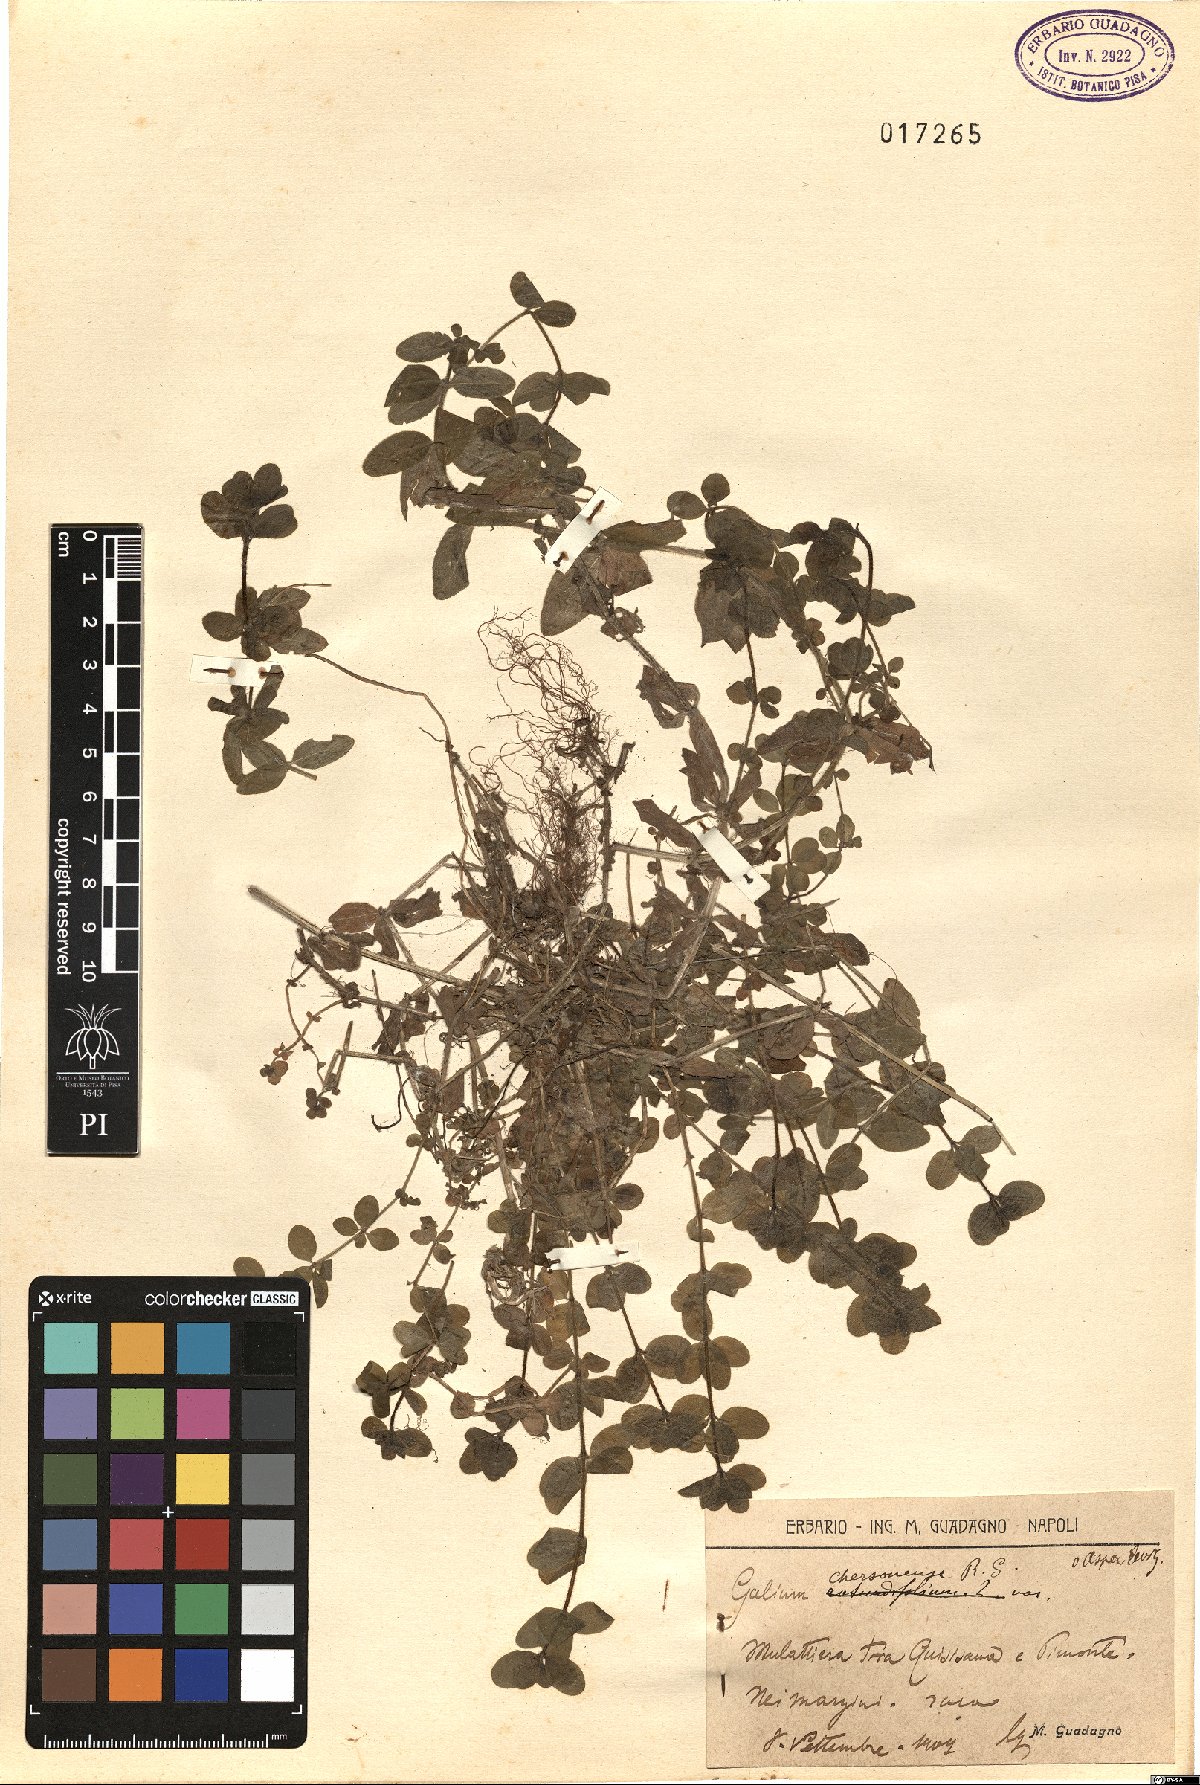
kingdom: Plantae
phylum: Tracheophyta
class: Magnoliopsida
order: Gentianales
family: Rubiaceae
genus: Cruciata
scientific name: Cruciata taurica
